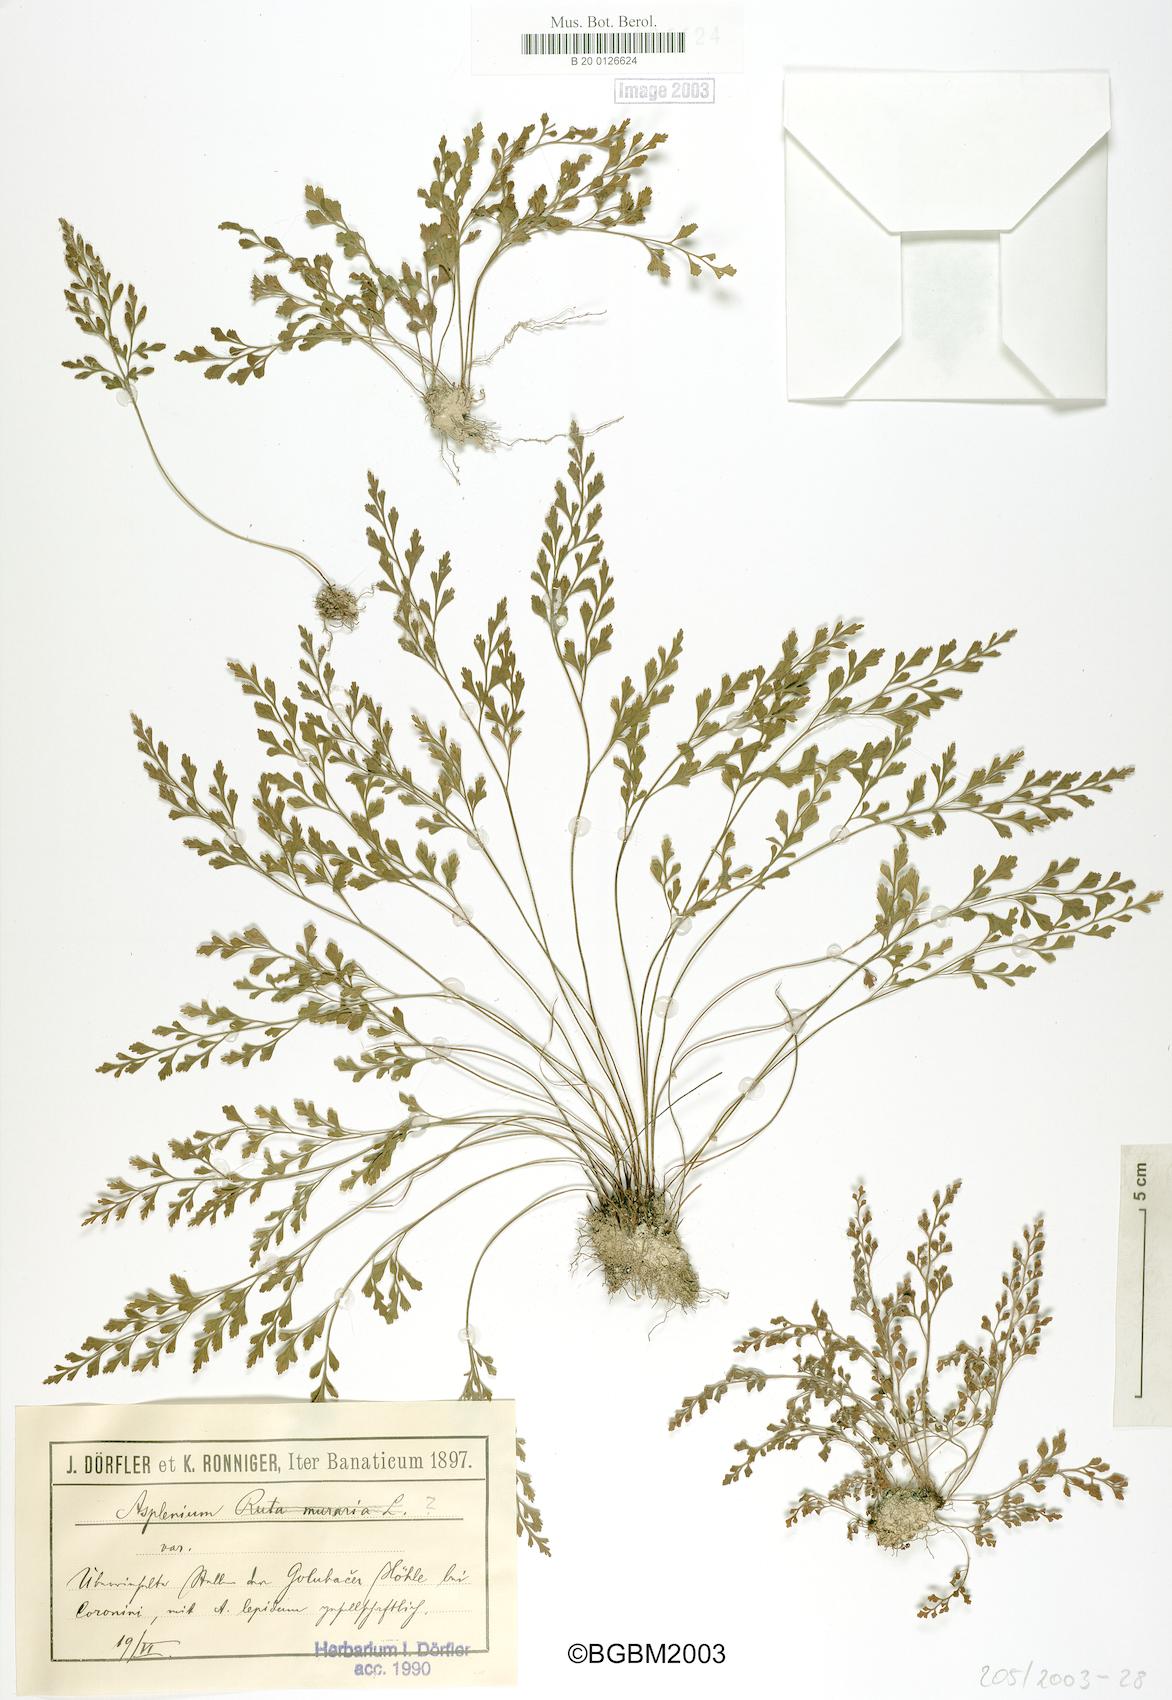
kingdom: Plantae
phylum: Tracheophyta
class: Polypodiopsida
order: Polypodiales
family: Aspleniaceae
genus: Asplenium
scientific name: Asplenium
